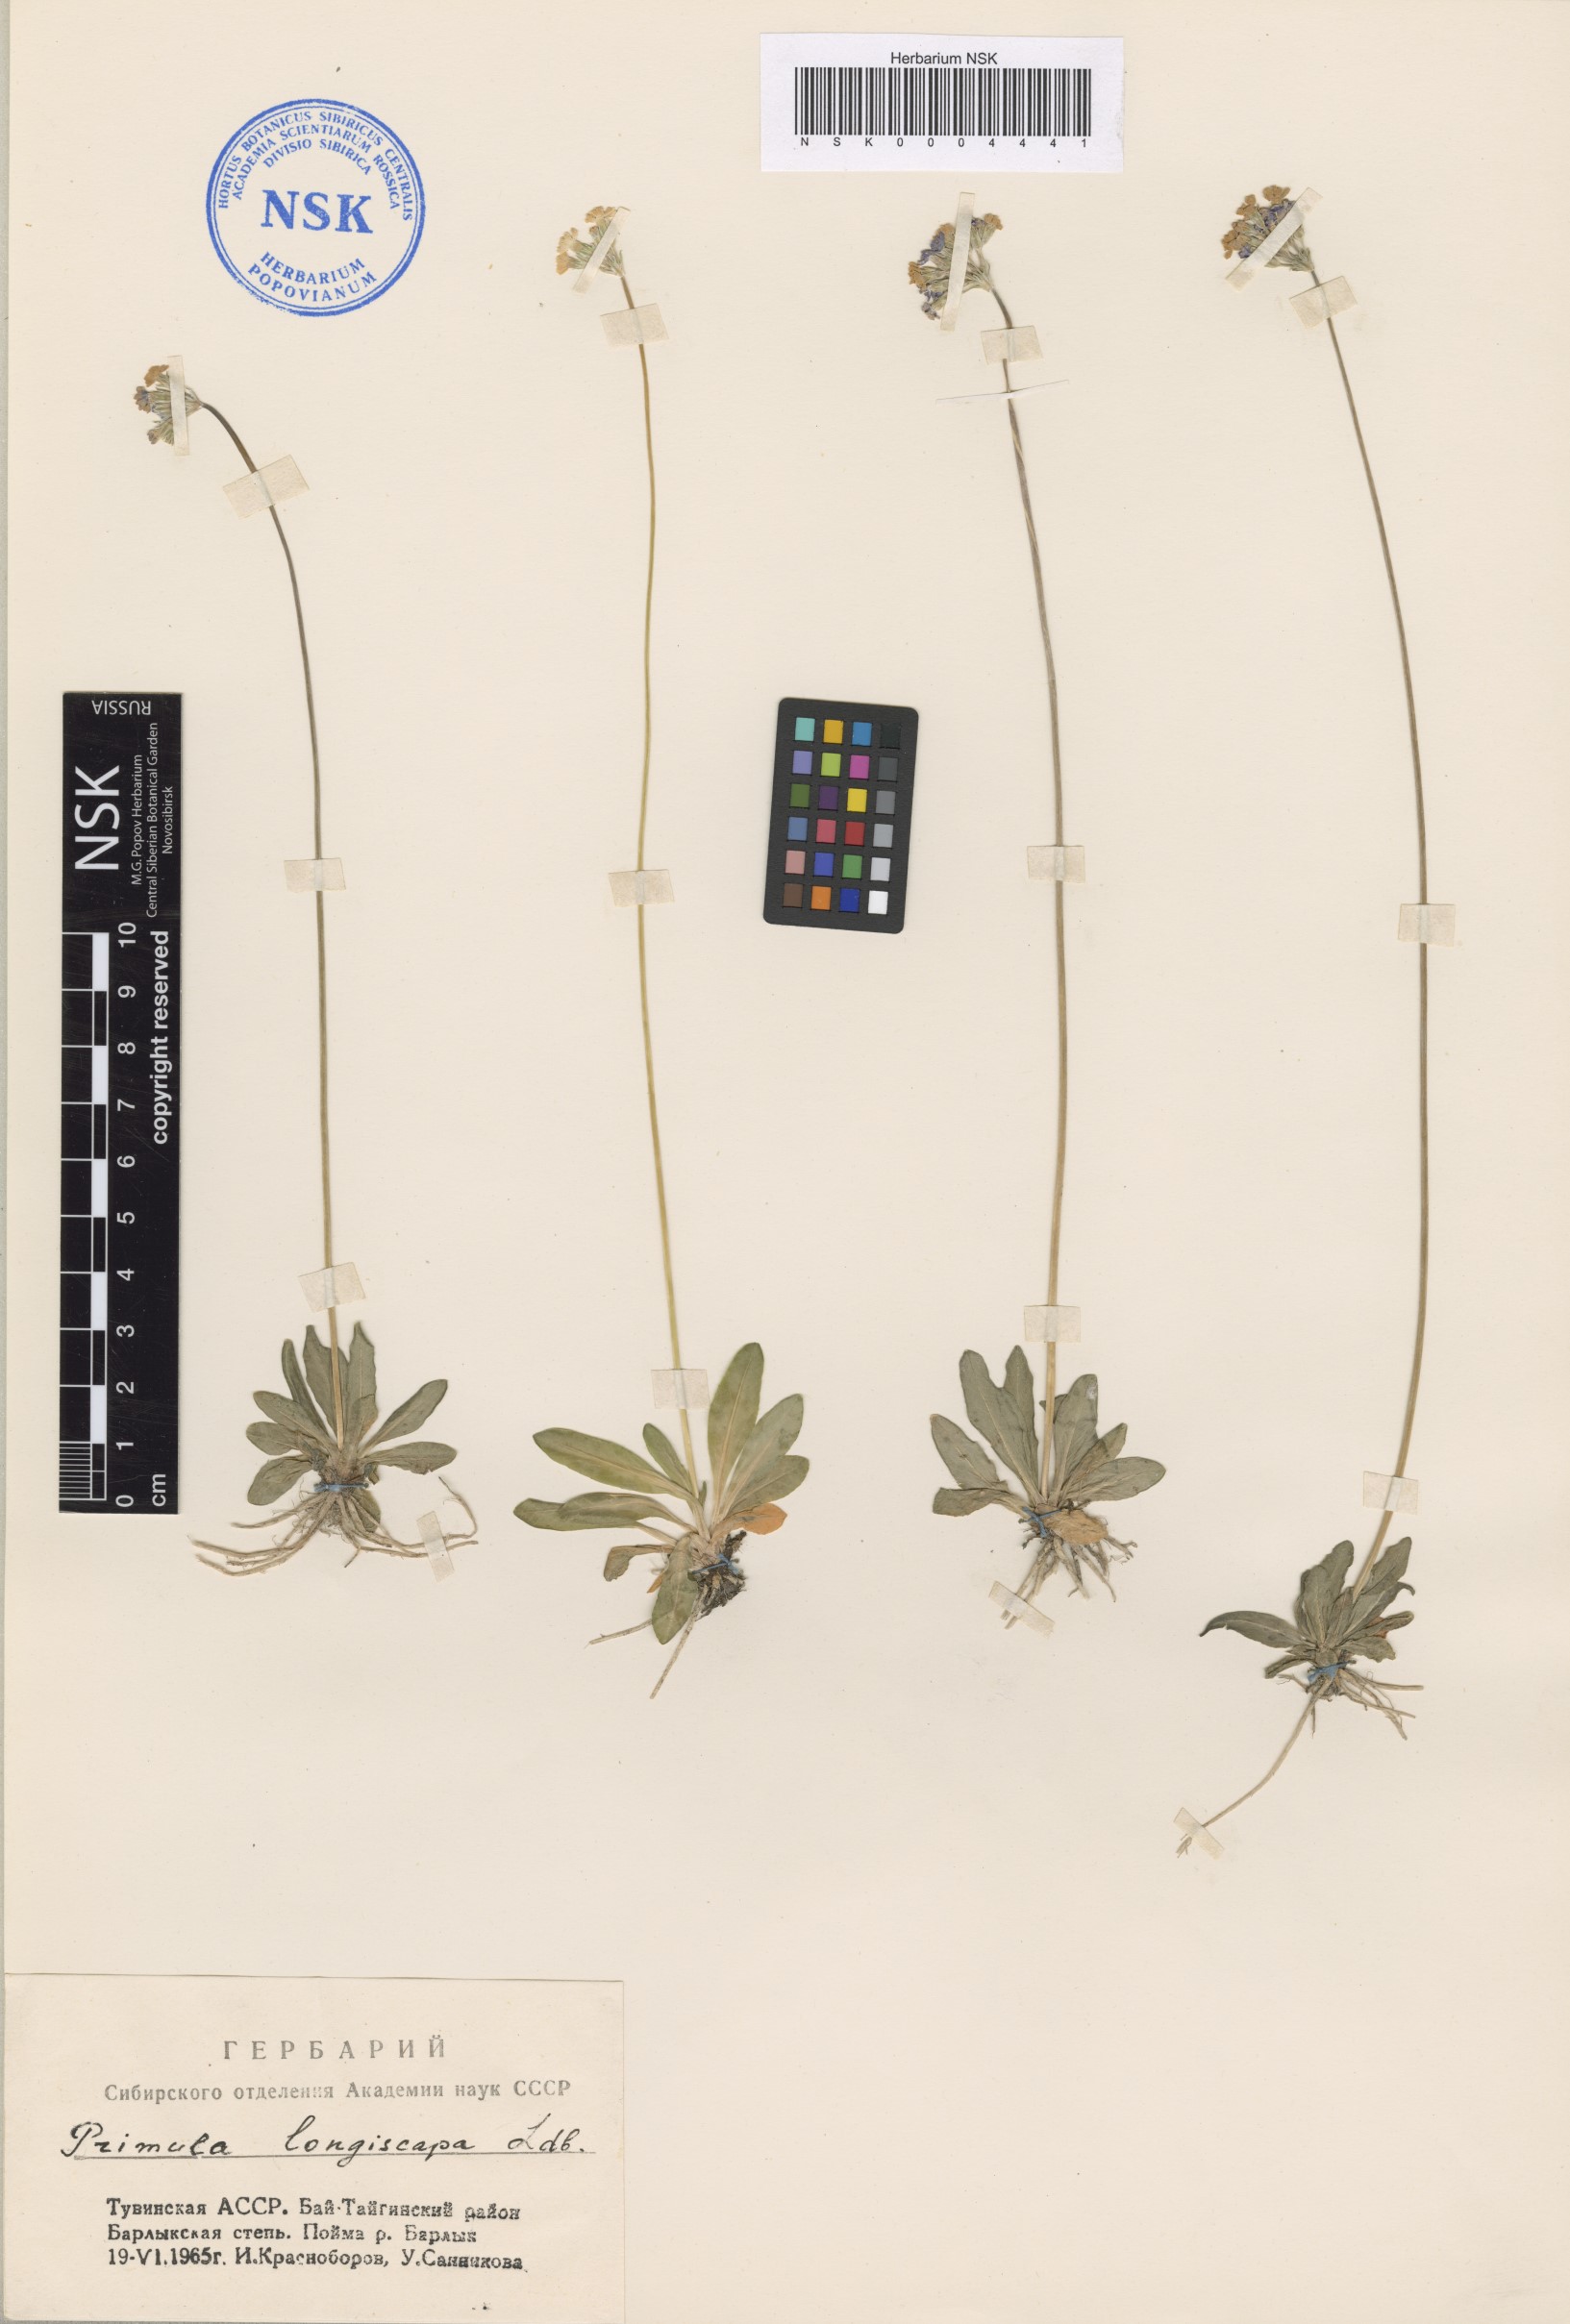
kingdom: Plantae
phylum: Tracheophyta
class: Magnoliopsida
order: Ericales
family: Primulaceae
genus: Primula
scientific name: Primula longiscapa
